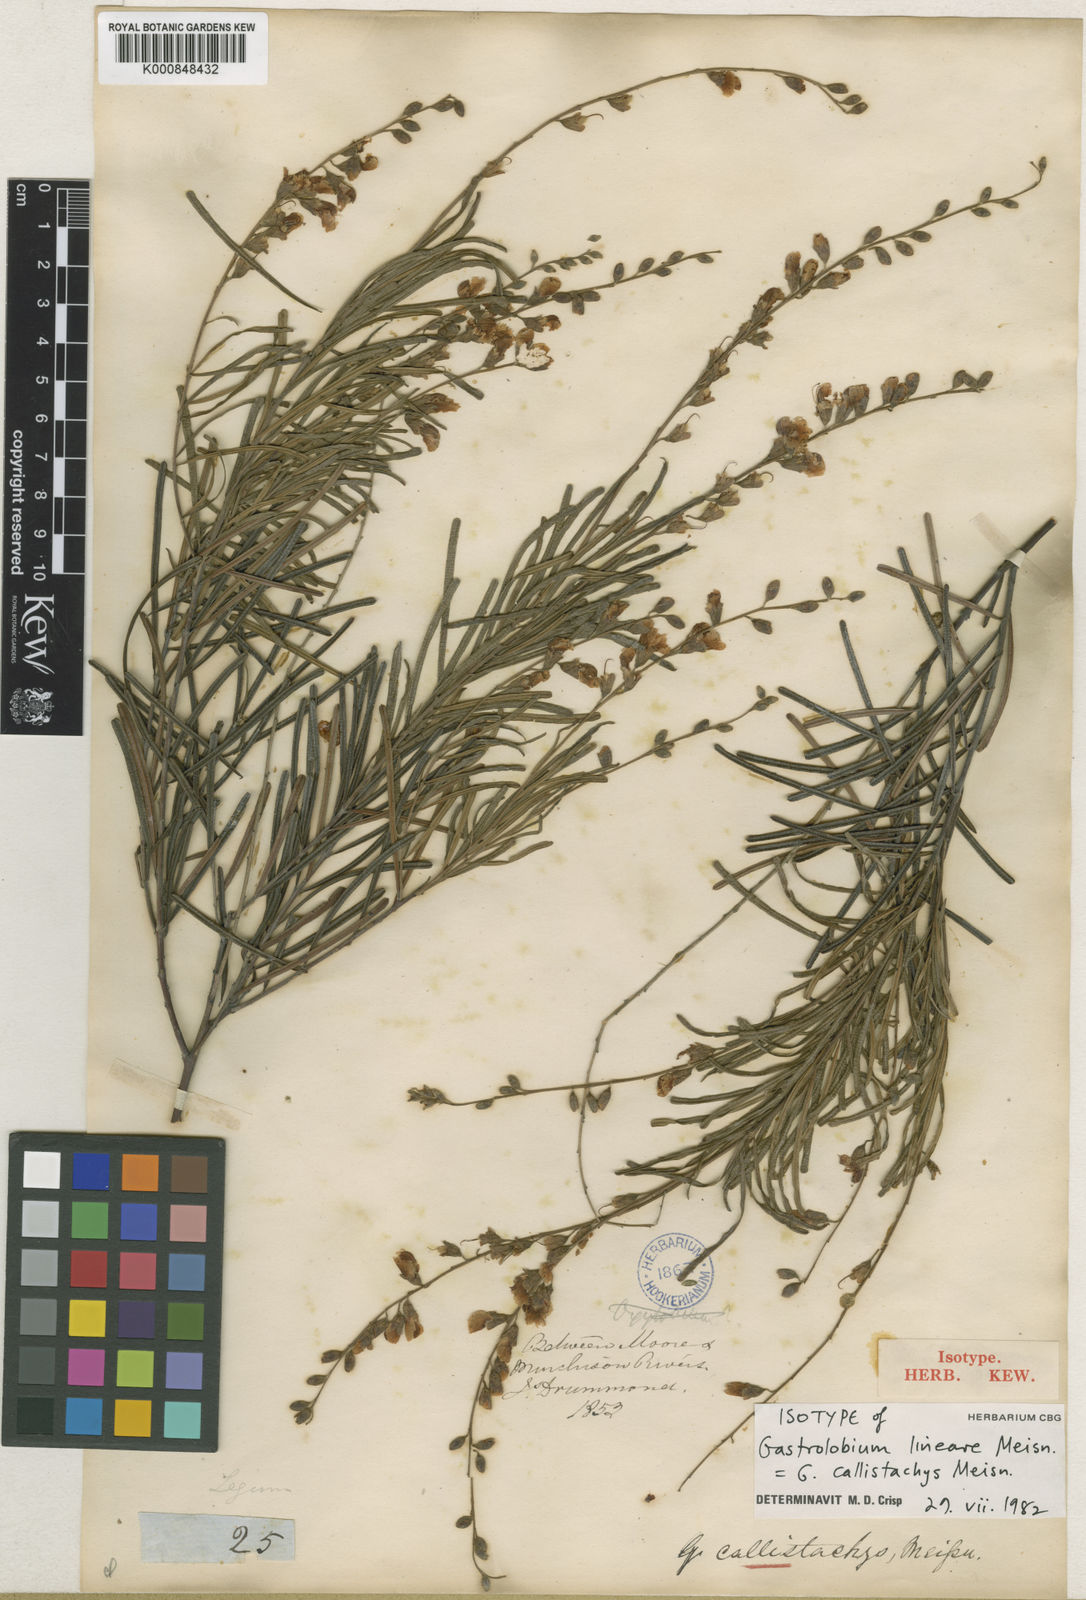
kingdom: Plantae
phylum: Tracheophyta
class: Magnoliopsida
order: Fabales
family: Fabaceae
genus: Gastrolobium
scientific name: Gastrolobium callistachys
